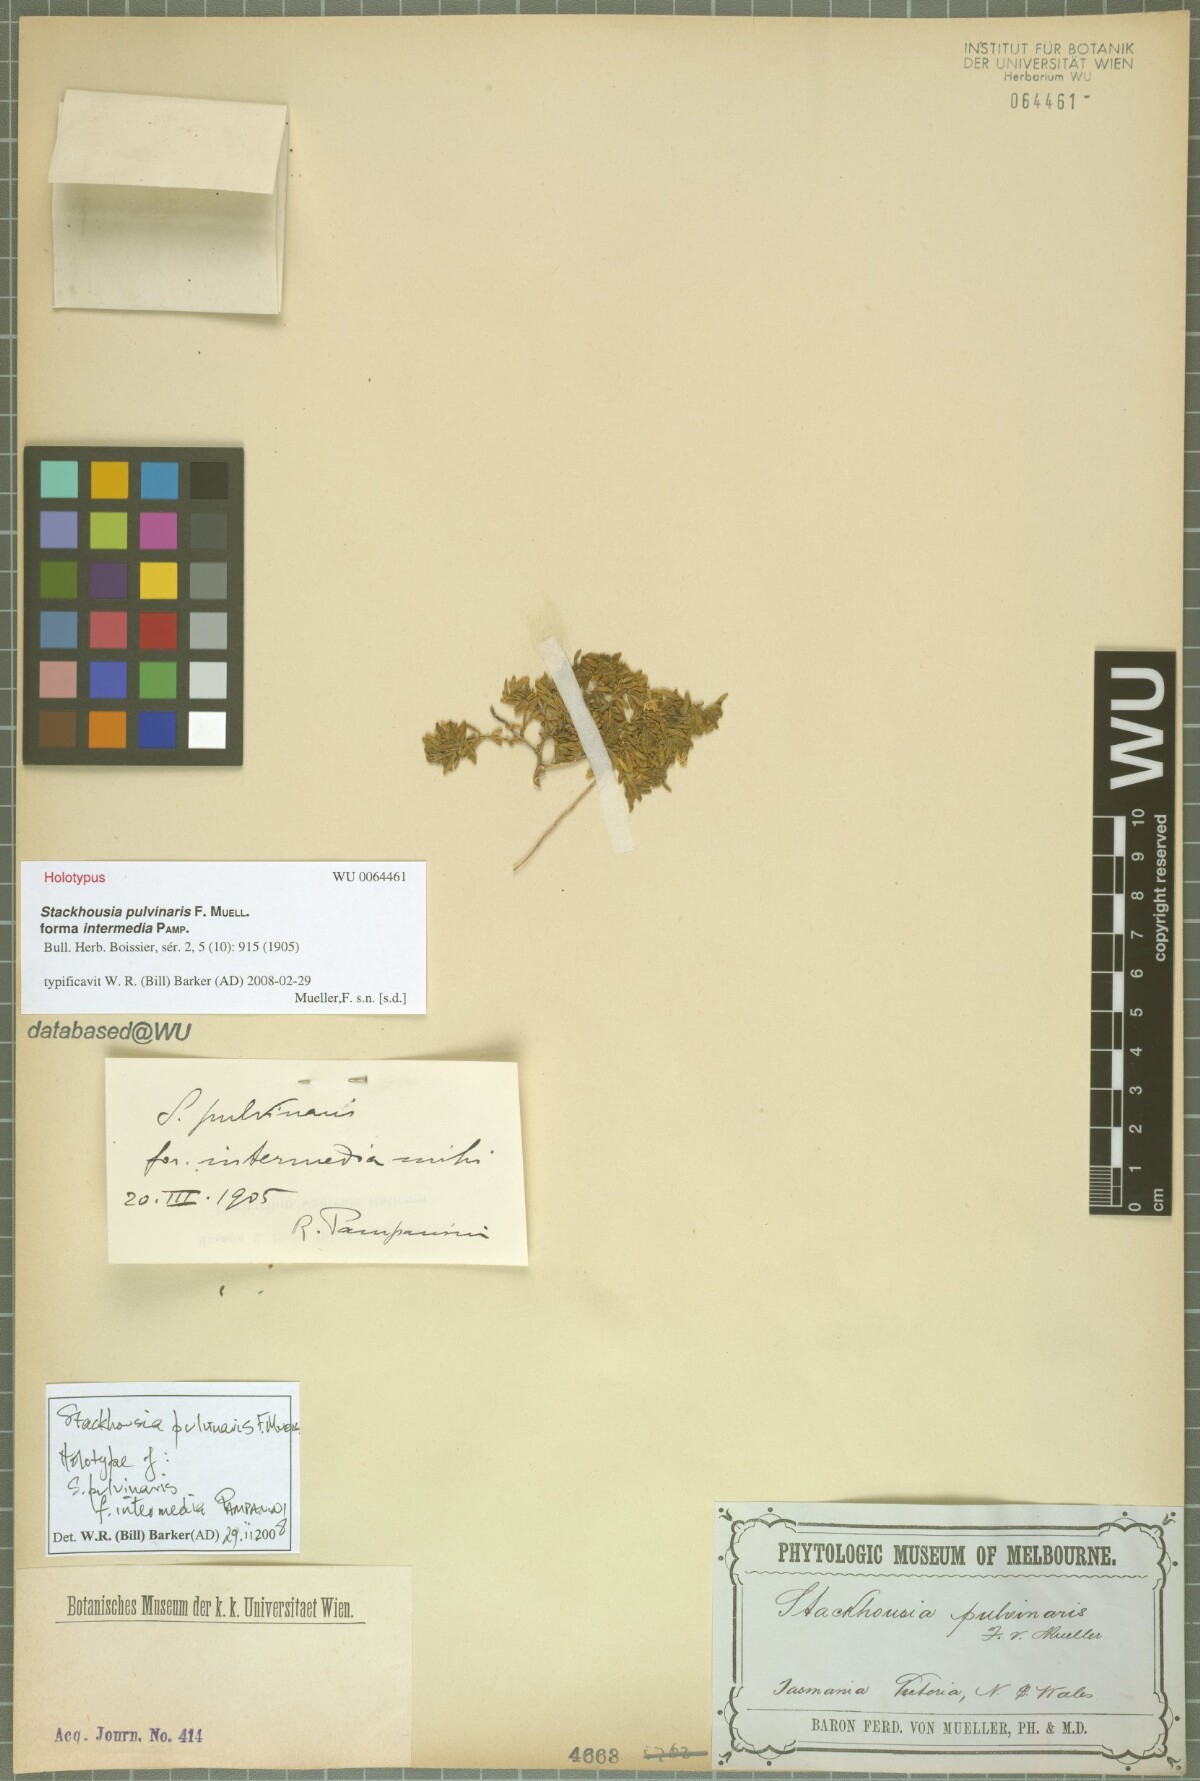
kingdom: Plantae
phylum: Tracheophyta
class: Magnoliopsida
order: Celastrales
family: Celastraceae
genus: Stackhousia
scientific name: Stackhousia pulvinaris
